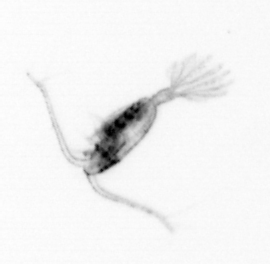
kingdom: Animalia
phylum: Arthropoda
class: Copepoda
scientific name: Copepoda
